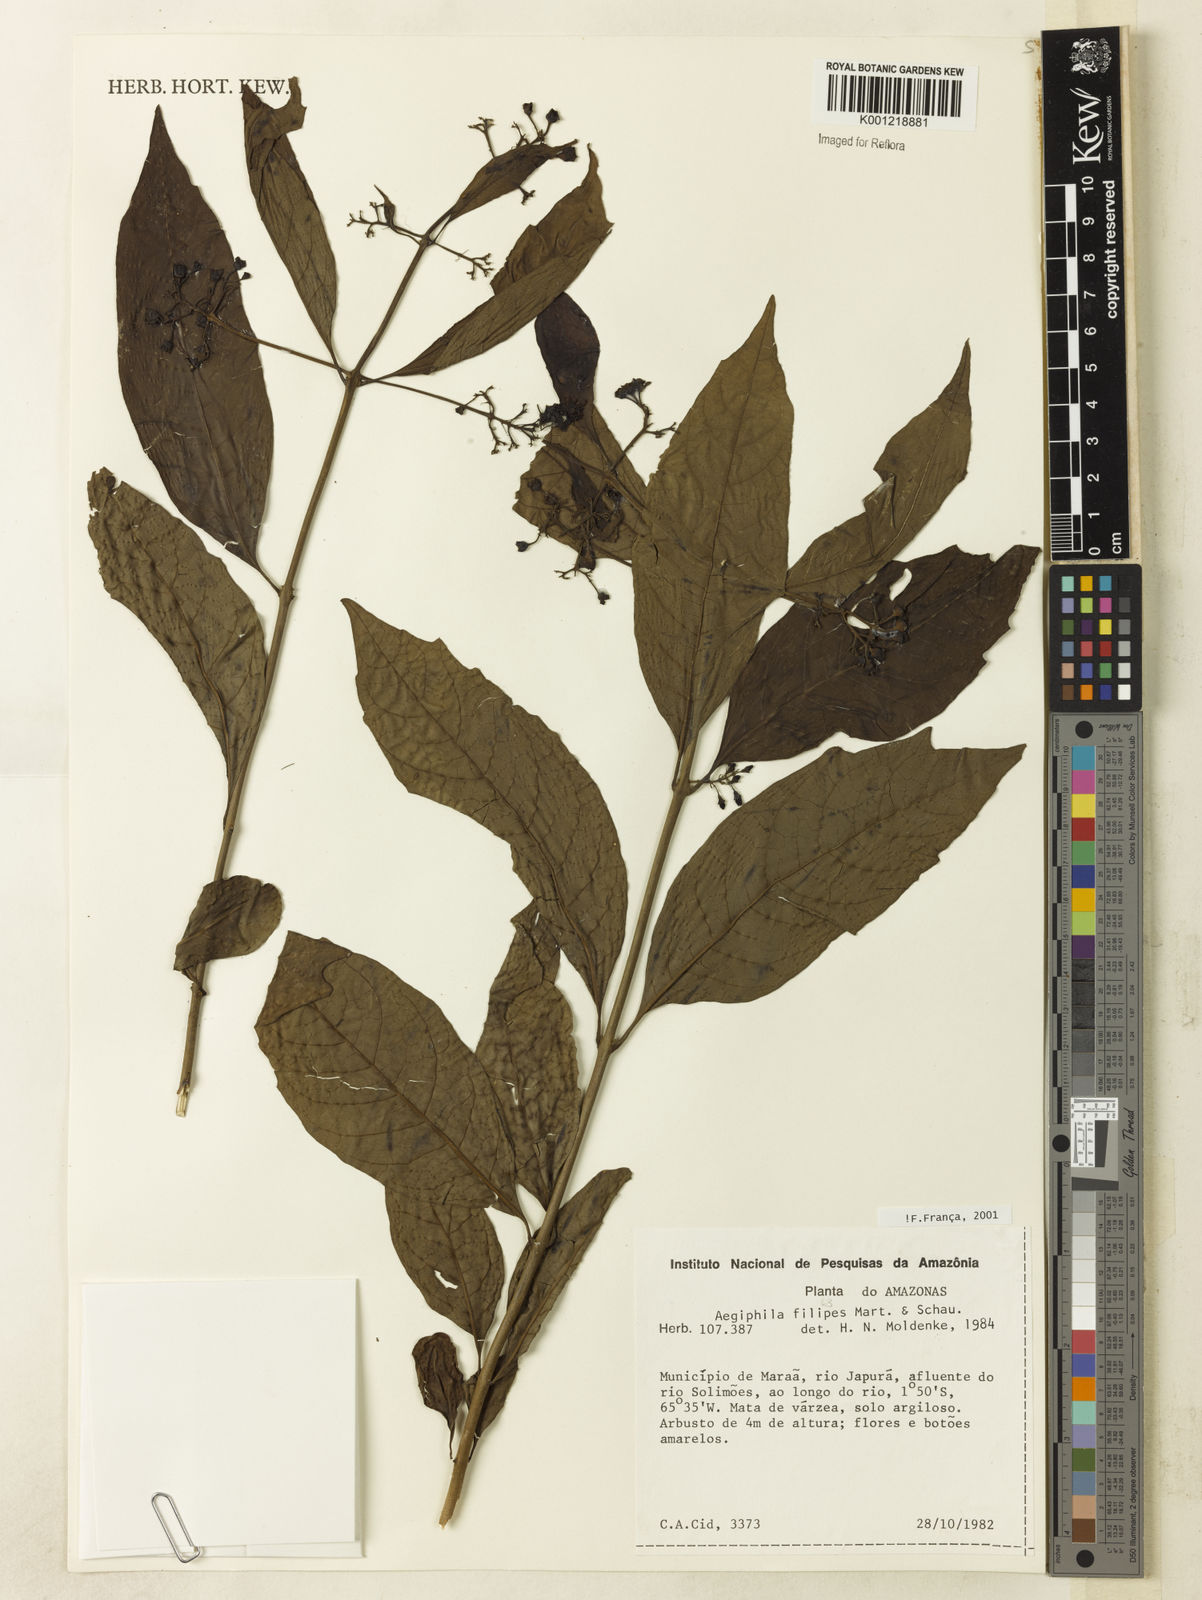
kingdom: Plantae
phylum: Tracheophyta
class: Magnoliopsida
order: Lamiales
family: Lamiaceae
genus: Aegiphila
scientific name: Aegiphila filipes
